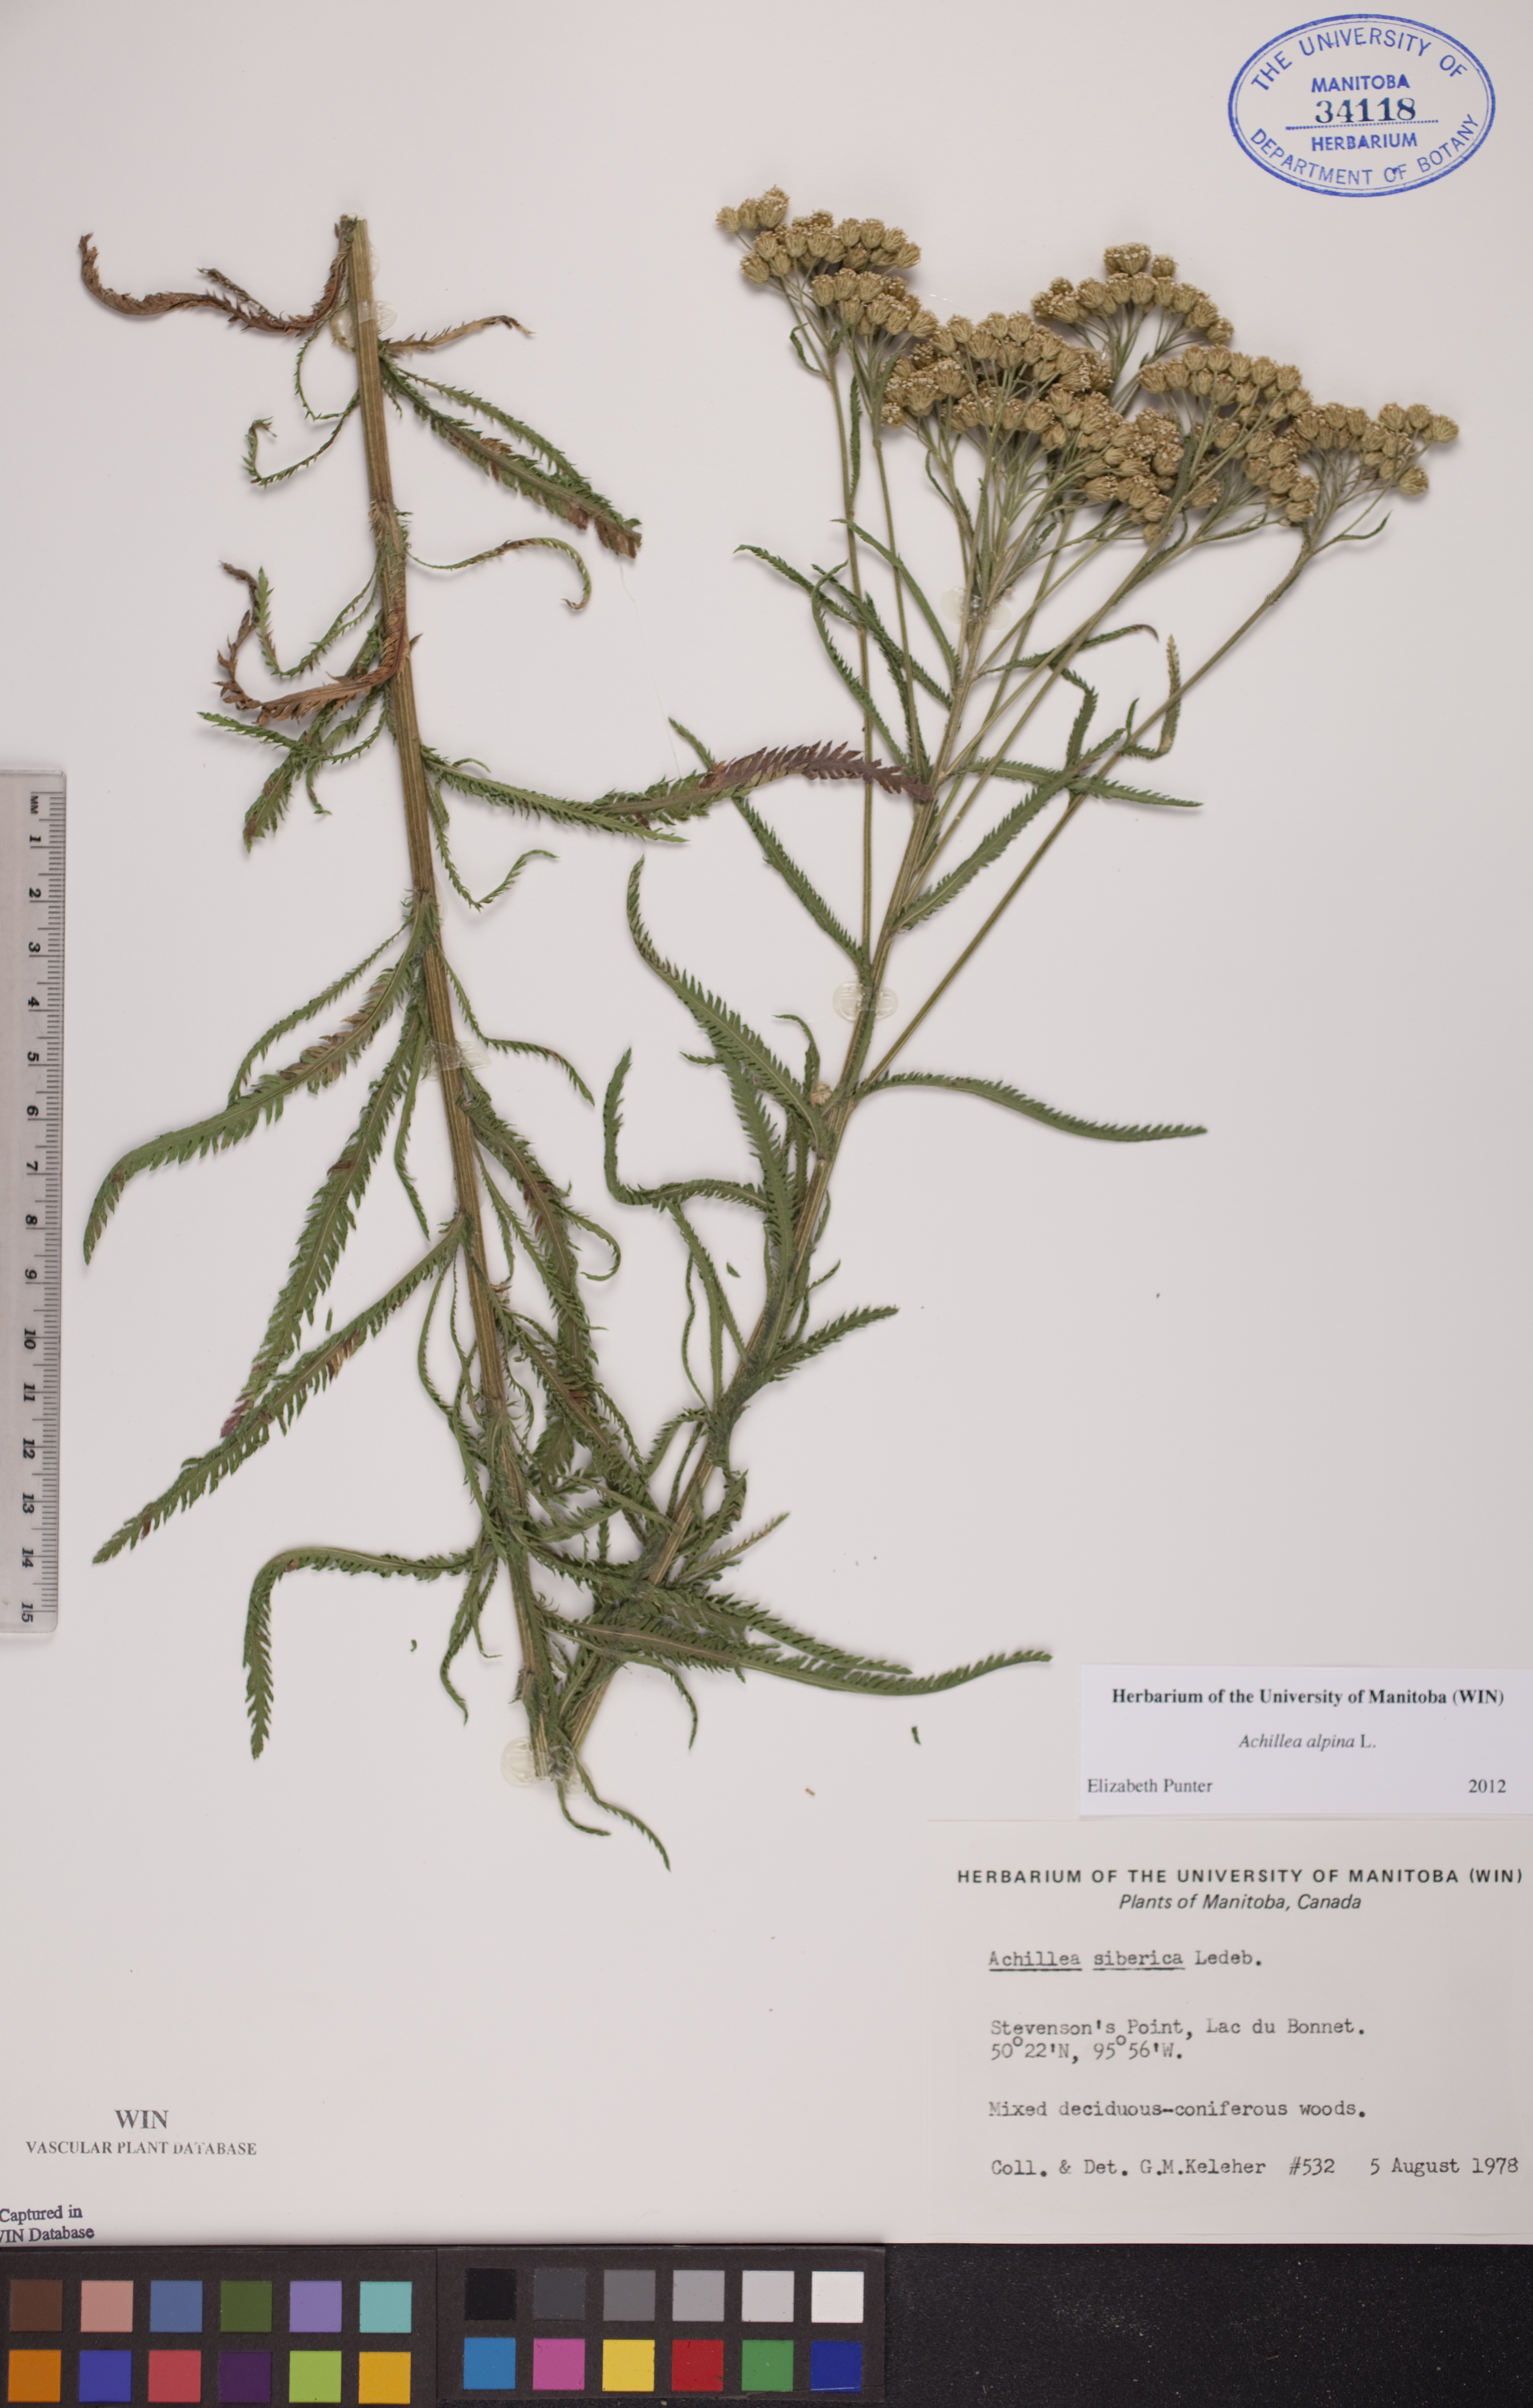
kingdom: Plantae
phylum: Tracheophyta
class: Magnoliopsida
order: Asterales
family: Asteraceae
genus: Achillea
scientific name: Achillea alpina
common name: Siberian yarrow
